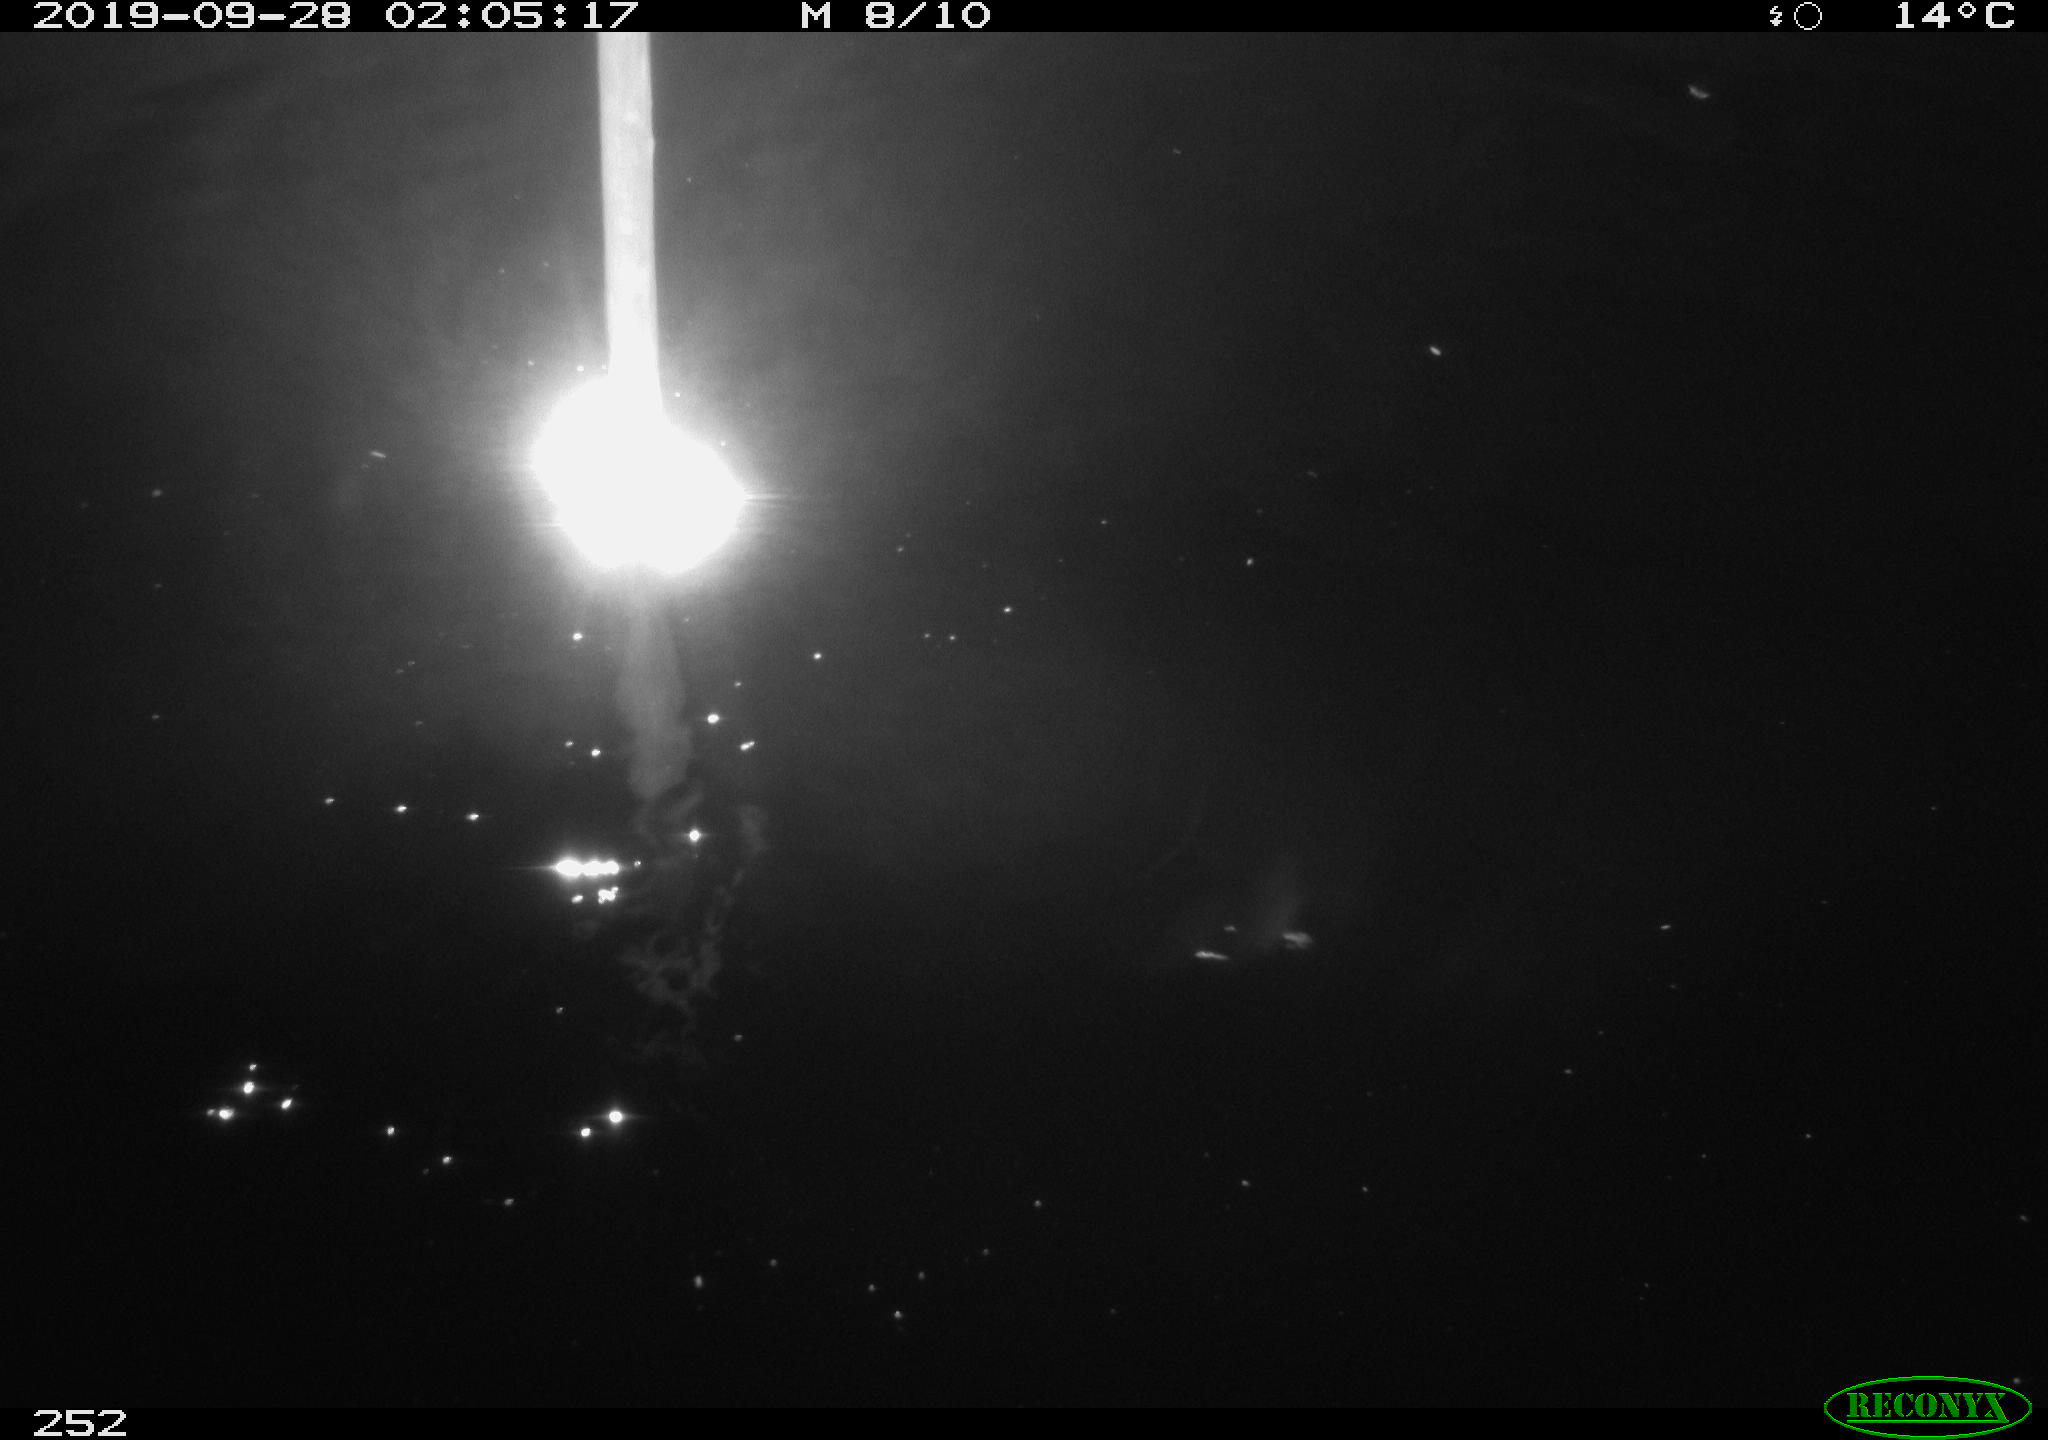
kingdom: Animalia
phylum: Chordata
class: Aves
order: Anseriformes
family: Anatidae
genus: Anas
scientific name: Anas platyrhynchos
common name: Mallard
